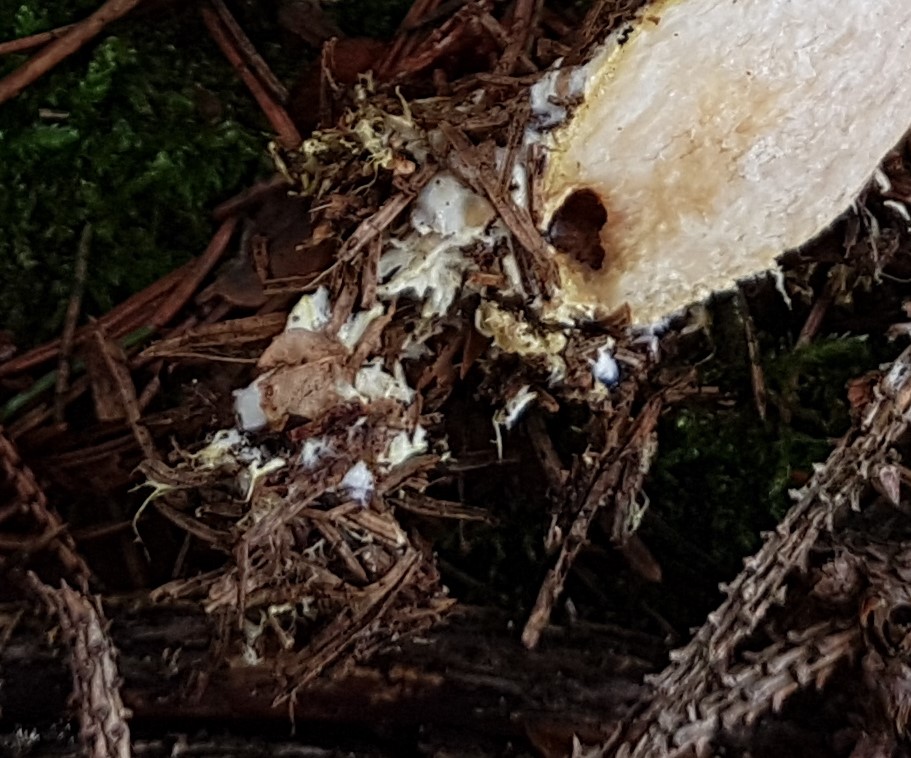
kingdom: Fungi
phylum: Basidiomycota
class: Agaricomycetes
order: Boletales
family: Boletaceae
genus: Xerocomus
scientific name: Xerocomus ferrugineus
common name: vaskeskinds-rørhat
